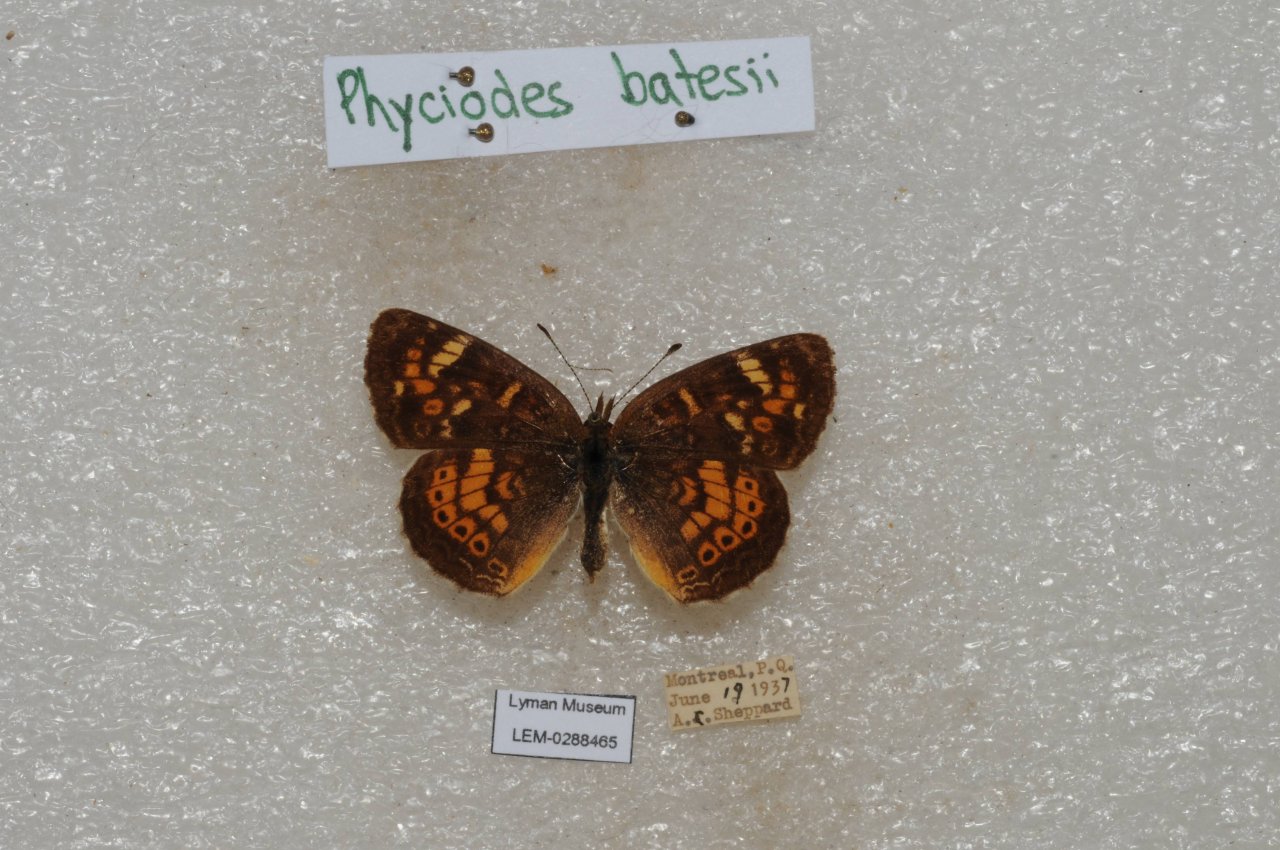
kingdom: Animalia
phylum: Arthropoda
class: Insecta
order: Lepidoptera
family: Nymphalidae
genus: Phyciodes
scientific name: Phyciodes tharos
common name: Northern Crescent
